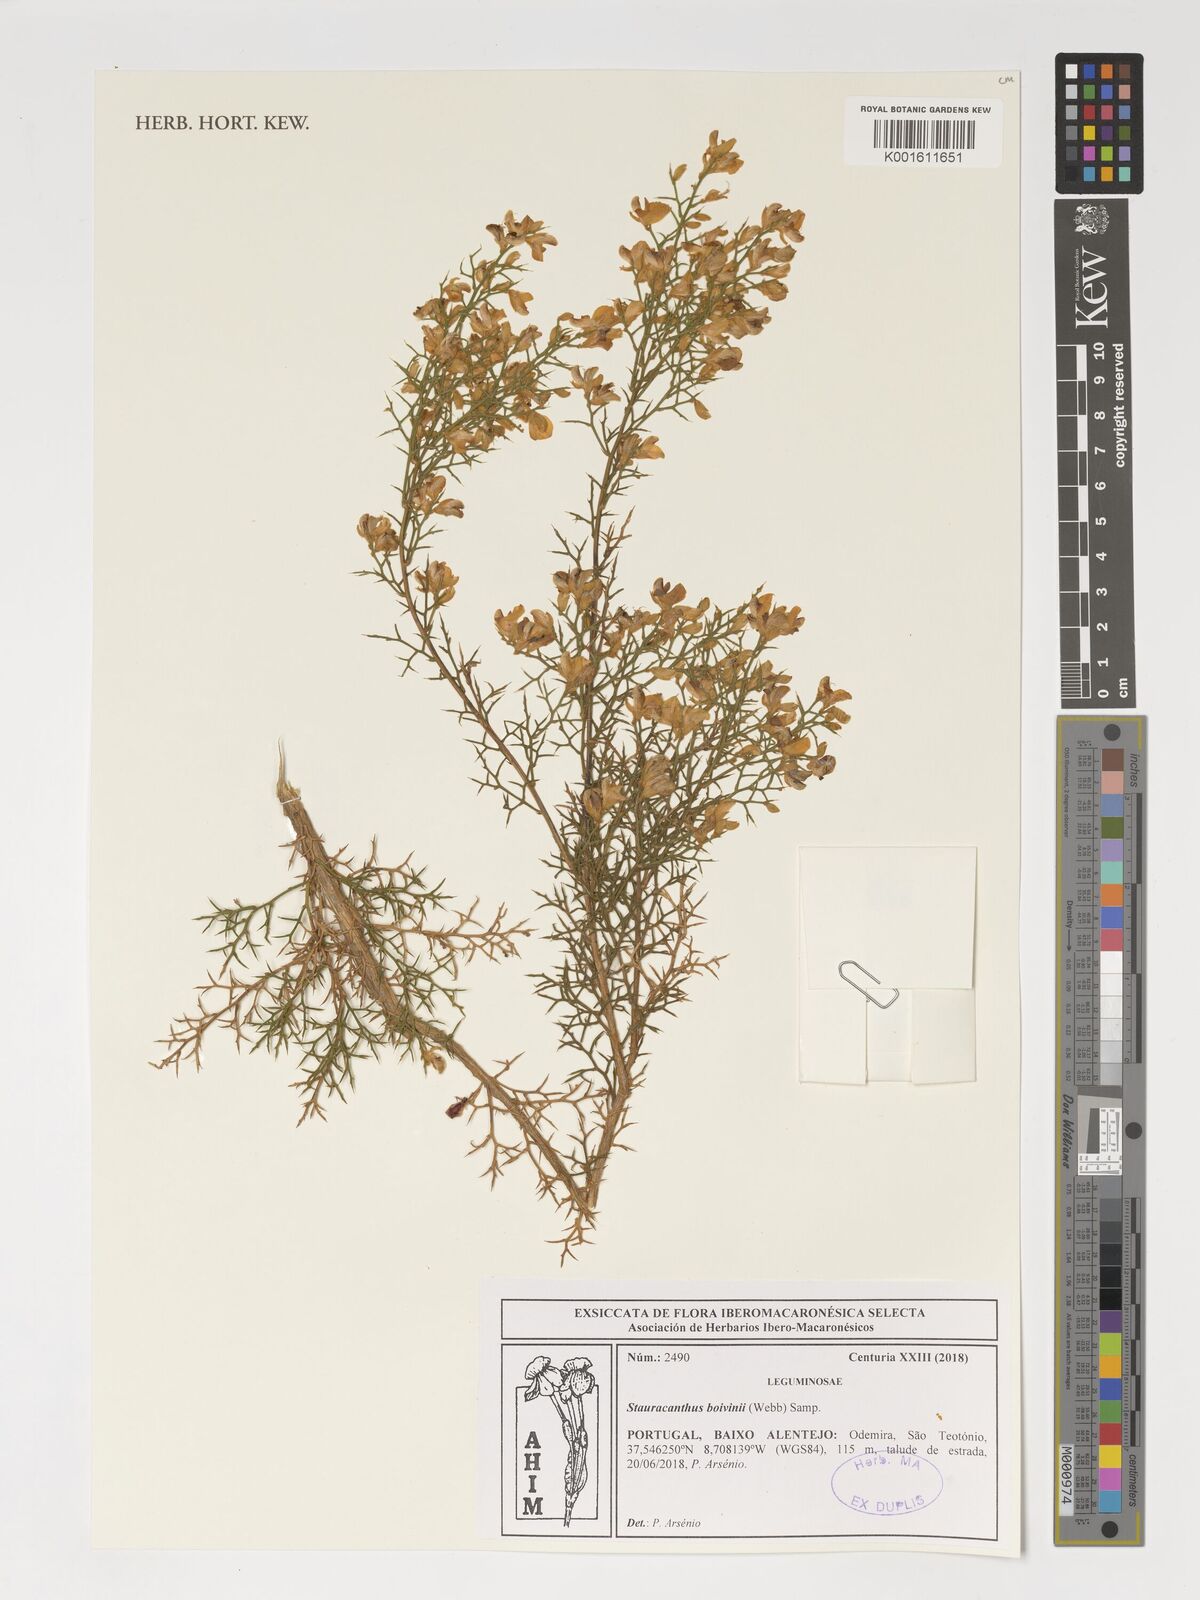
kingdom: Plantae
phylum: Tracheophyta
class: Magnoliopsida
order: Fabales
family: Fabaceae
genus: Stauracanthus
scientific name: Stauracanthus boivinii
